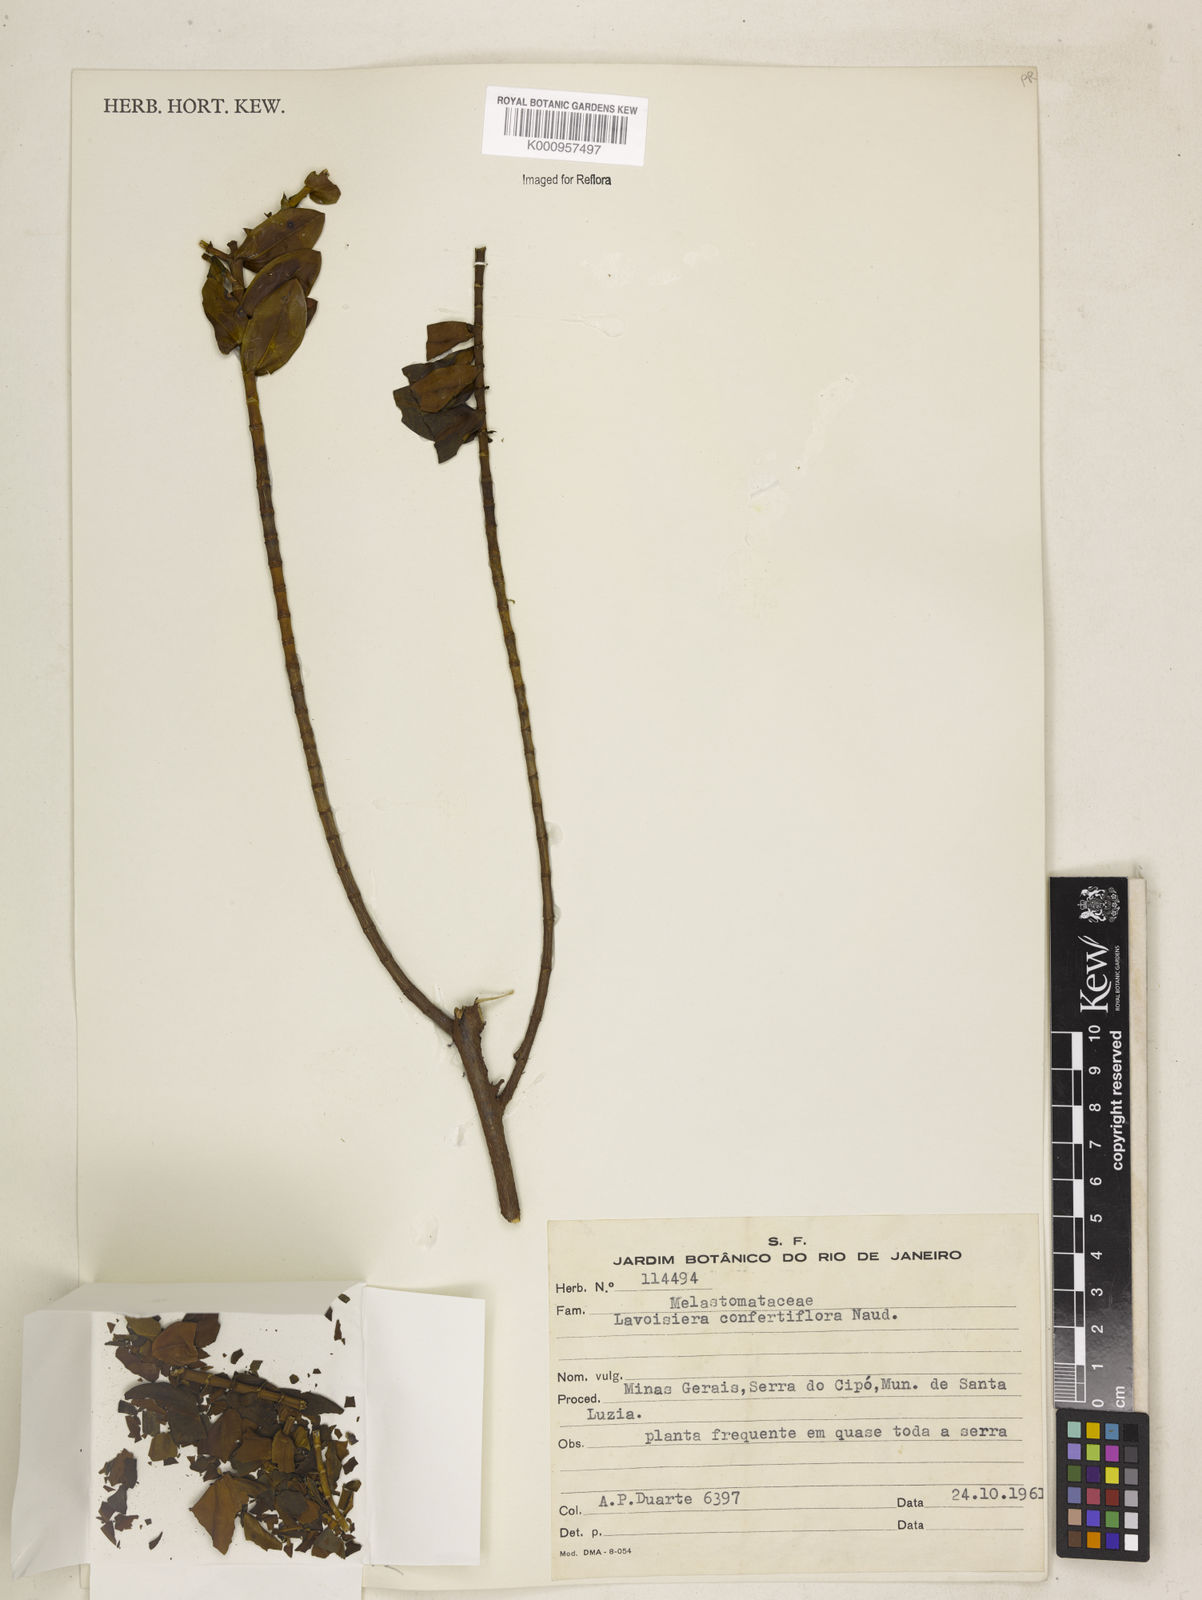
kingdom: Plantae
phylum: Tracheophyta
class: Magnoliopsida
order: Myrtales
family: Melastomataceae
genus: Microlicia
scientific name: Microlicia congestiflora
